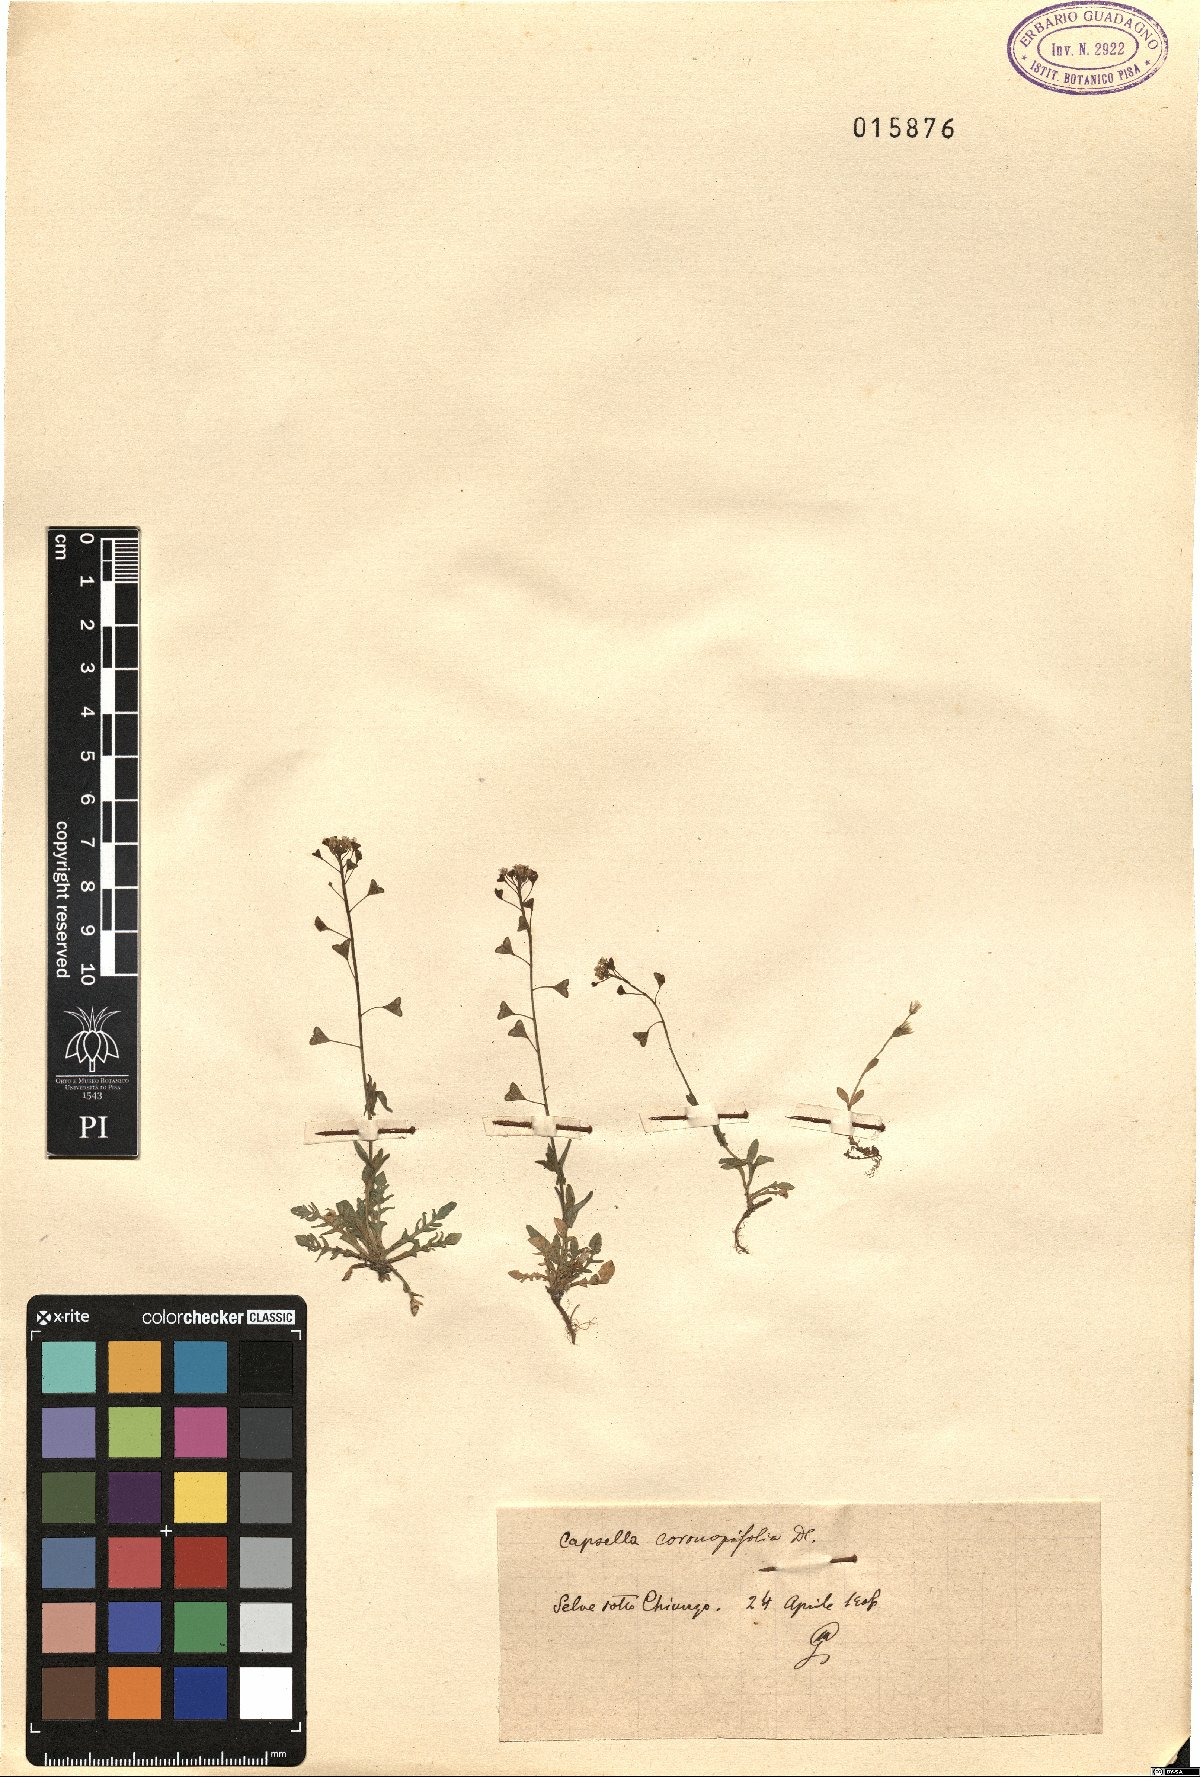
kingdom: Plantae
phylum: Tracheophyta
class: Magnoliopsida
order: Brassicales
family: Brassicaceae
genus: Capsella
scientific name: Capsella
